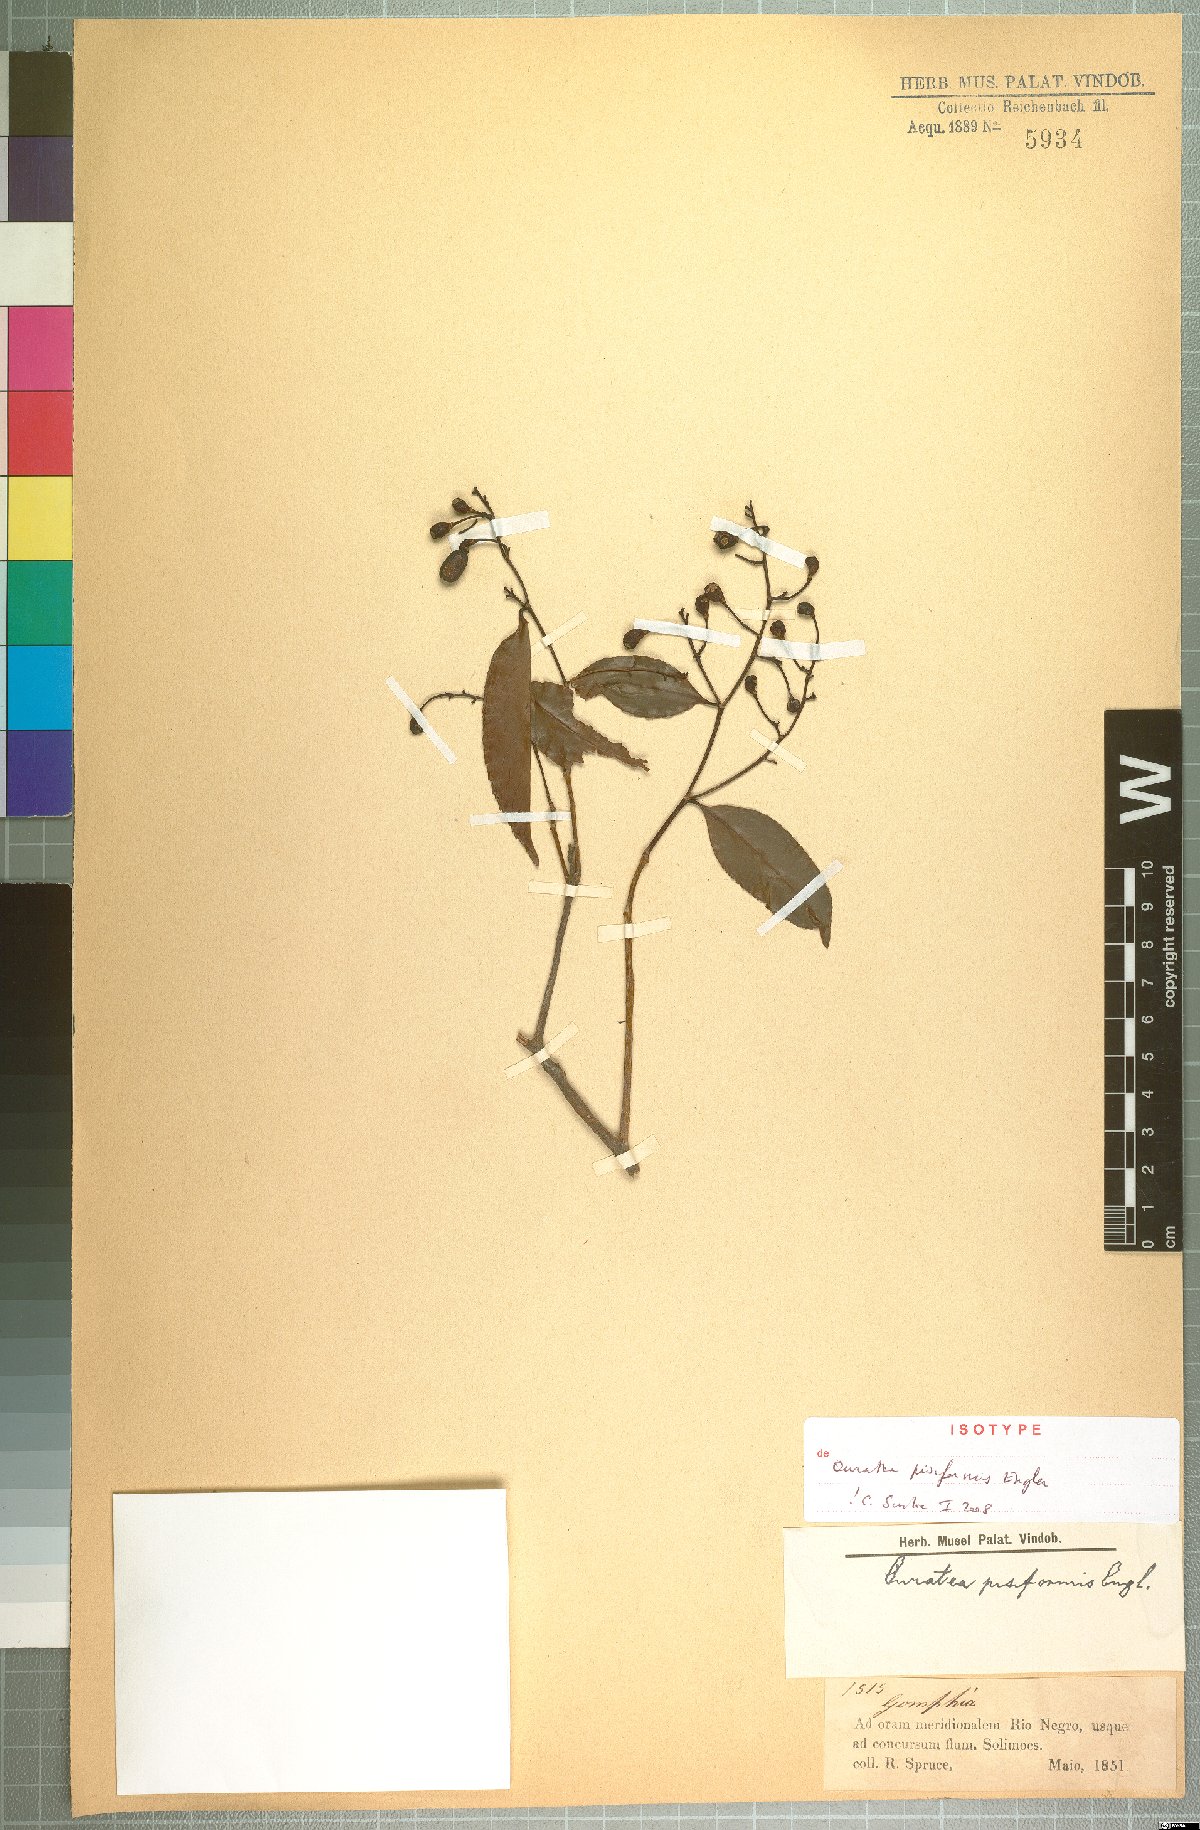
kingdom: Plantae
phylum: Tracheophyta
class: Magnoliopsida
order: Malpighiales
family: Ochnaceae
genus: Ouratea
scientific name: Ouratea pisiformis
